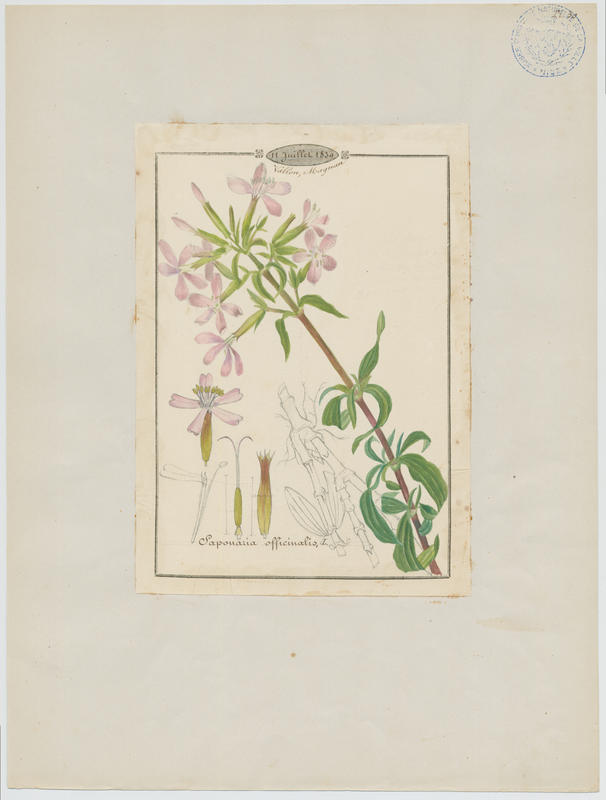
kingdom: Plantae
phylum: Tracheophyta
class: Magnoliopsida
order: Caryophyllales
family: Caryophyllaceae
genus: Saponaria
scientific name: Saponaria officinalis
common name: Soapwort
